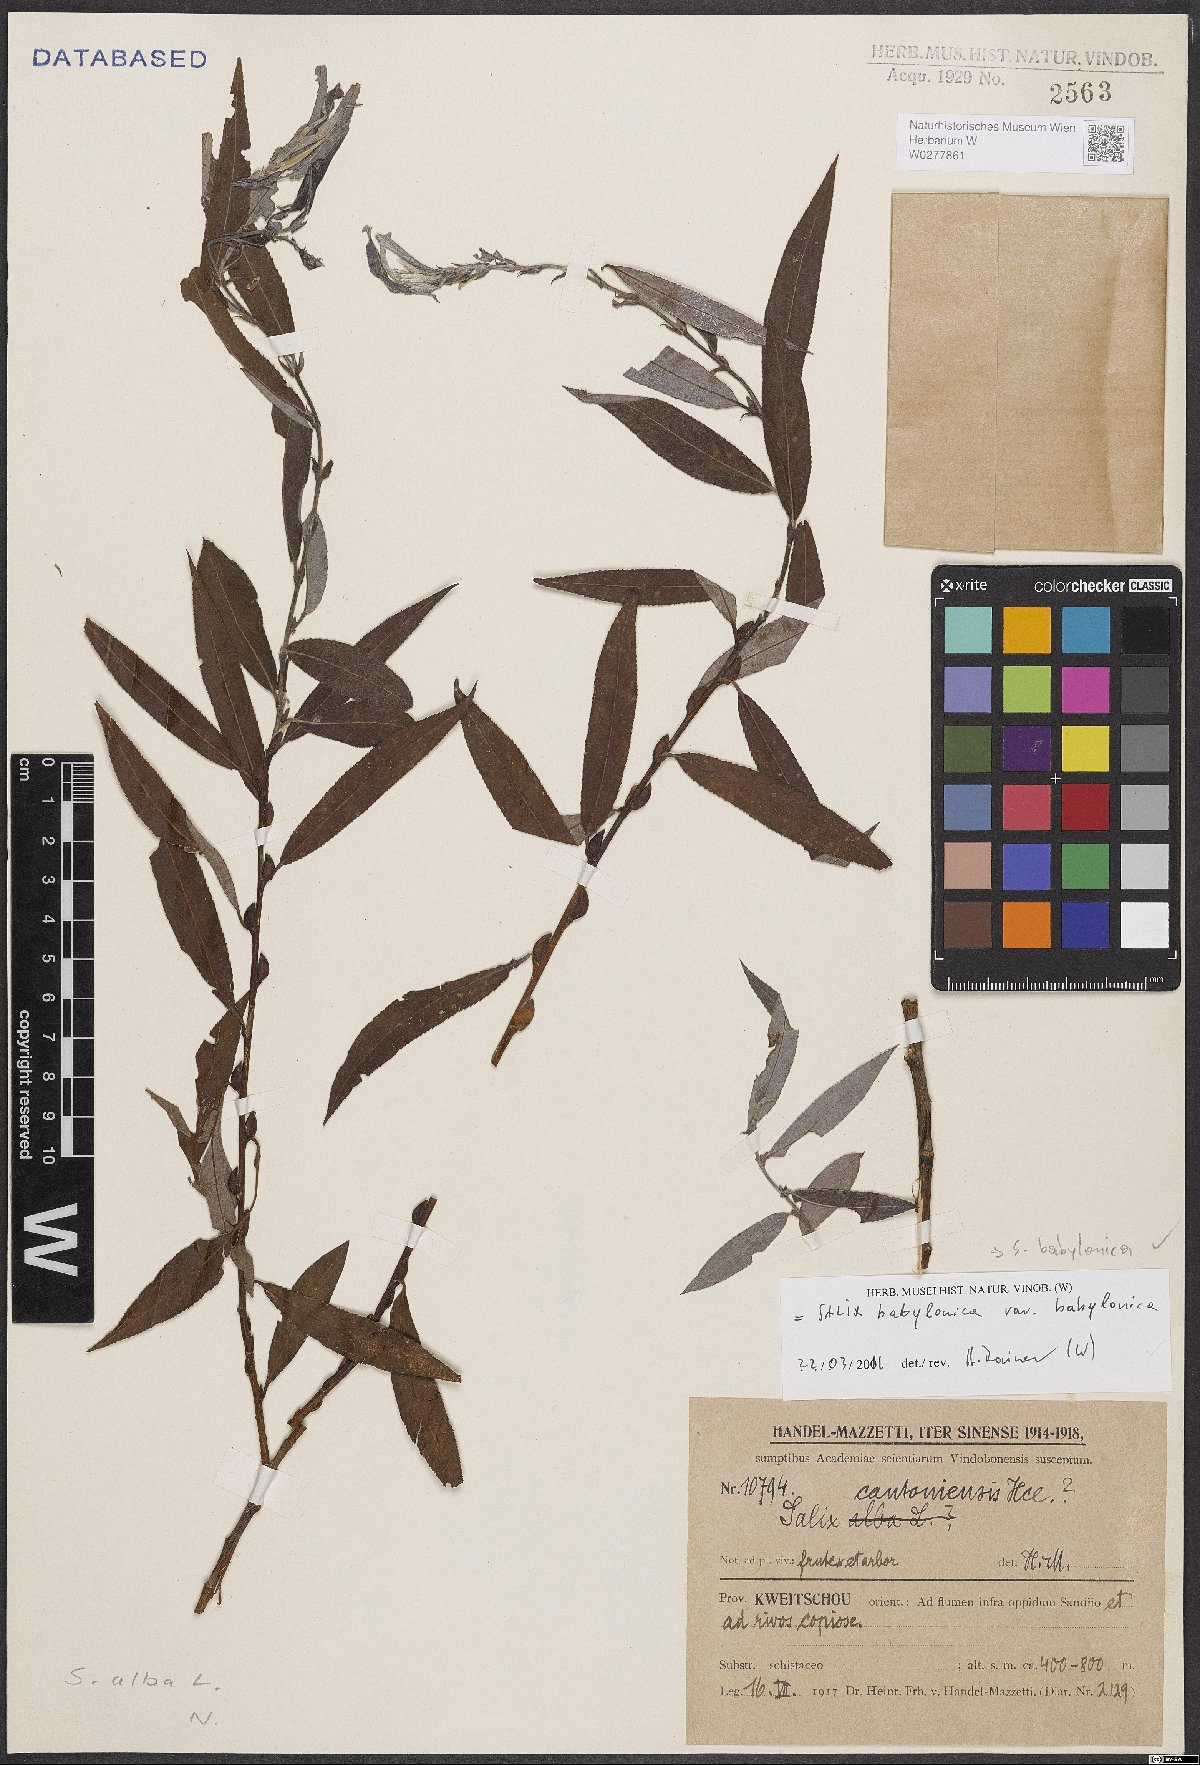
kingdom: Plantae
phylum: Tracheophyta
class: Magnoliopsida
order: Malpighiales
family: Salicaceae
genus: Salix
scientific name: Salix babylonica
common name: Weeping willow
